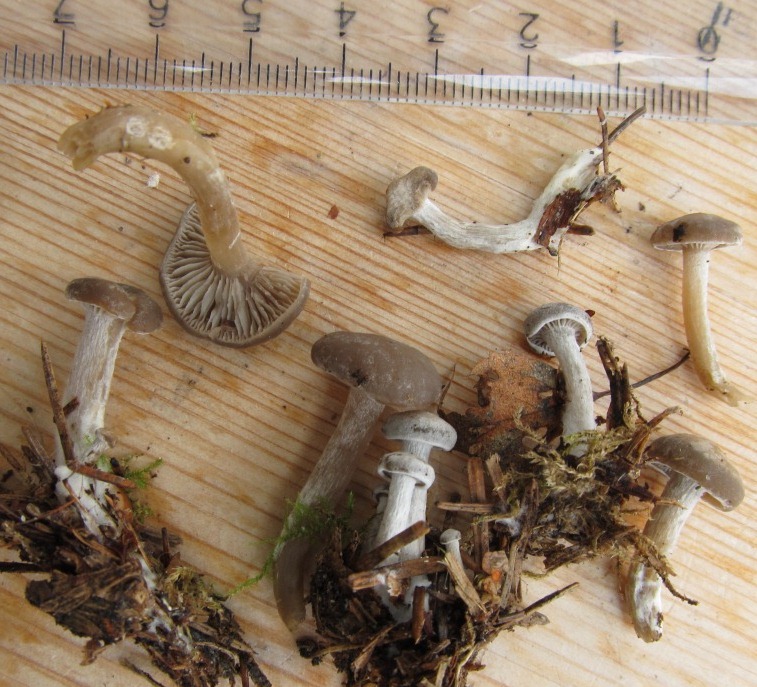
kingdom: Fungi
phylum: Basidiomycota
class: Agaricomycetes
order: Agaricales
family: Tricholomataceae
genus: Clitocybe
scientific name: Clitocybe vibecina
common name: randstribet tragthat
